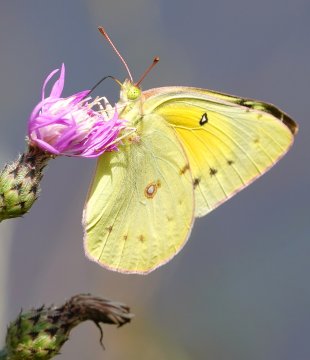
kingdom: Animalia
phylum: Arthropoda
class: Insecta
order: Lepidoptera
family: Pieridae
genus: Colias
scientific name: Colias eurytheme
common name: Orange Sulphur
